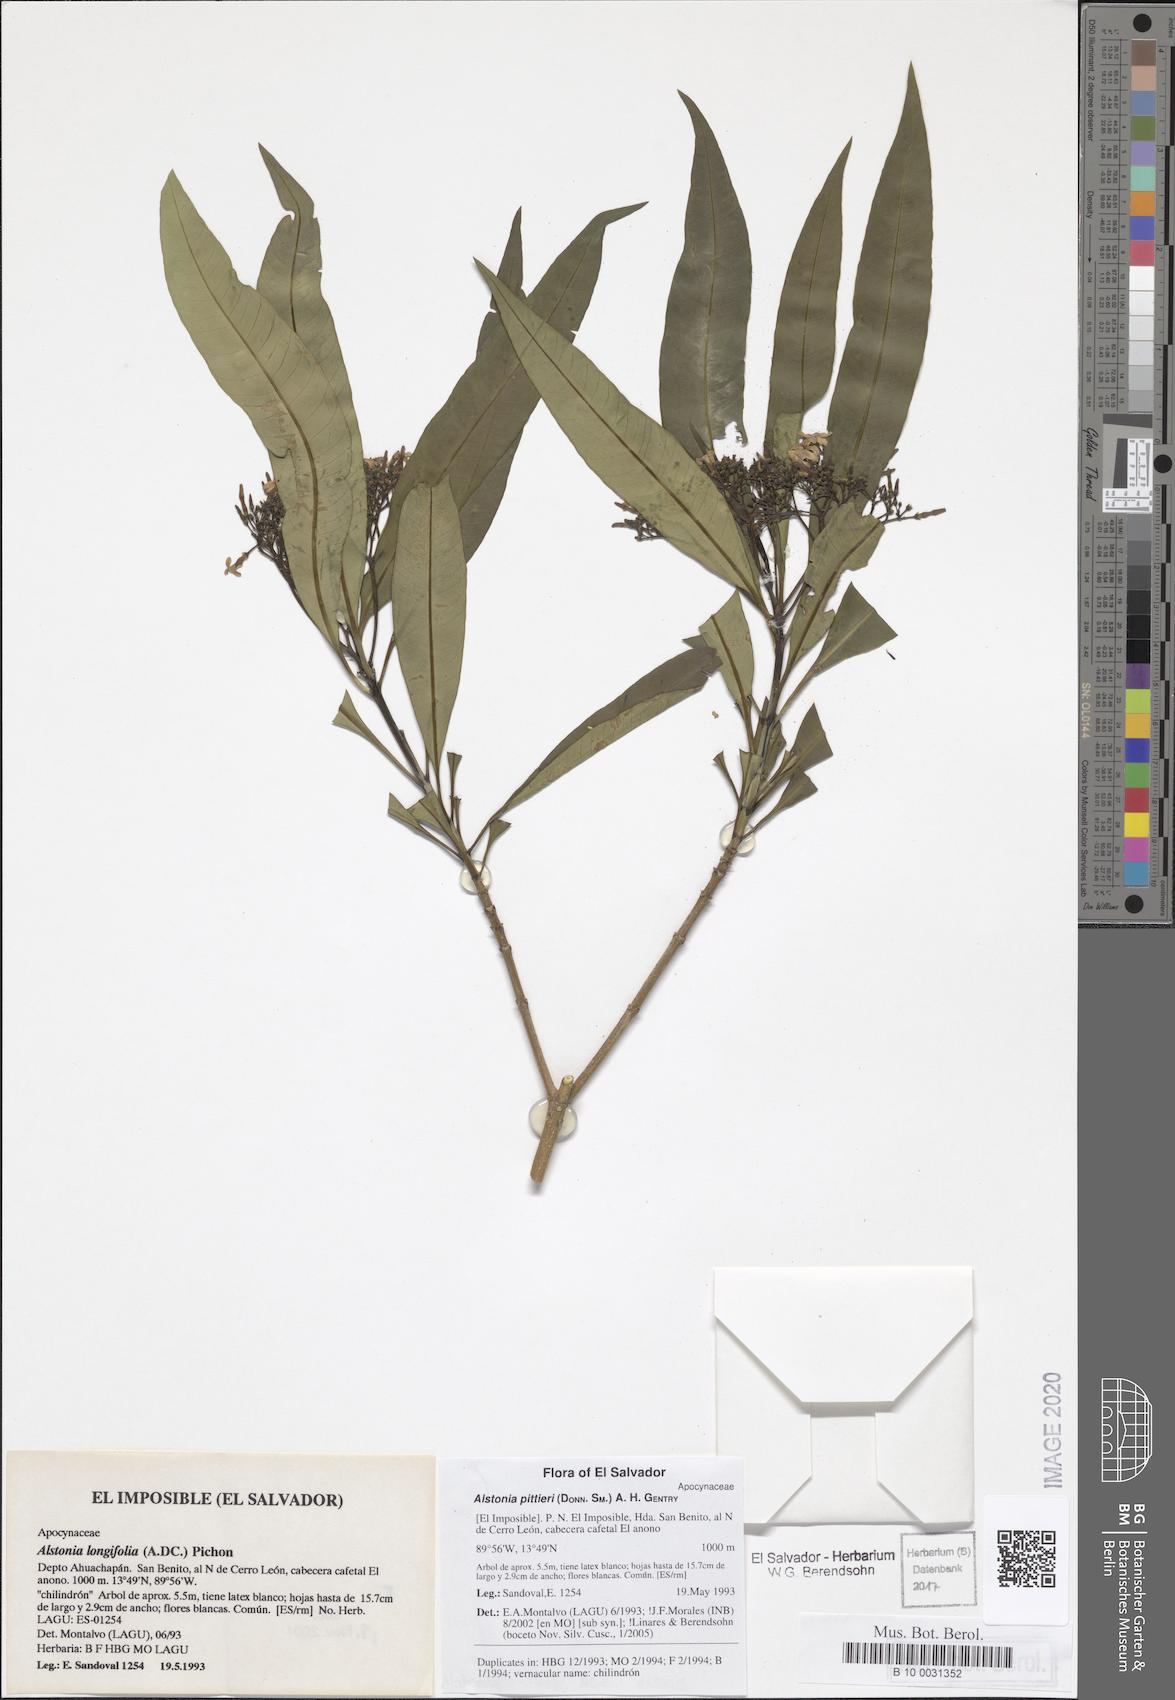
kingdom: Plantae
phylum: Tracheophyta
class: Magnoliopsida
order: Gentianales
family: Apocynaceae
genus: Tonduzia
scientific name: Tonduzia longifolia
